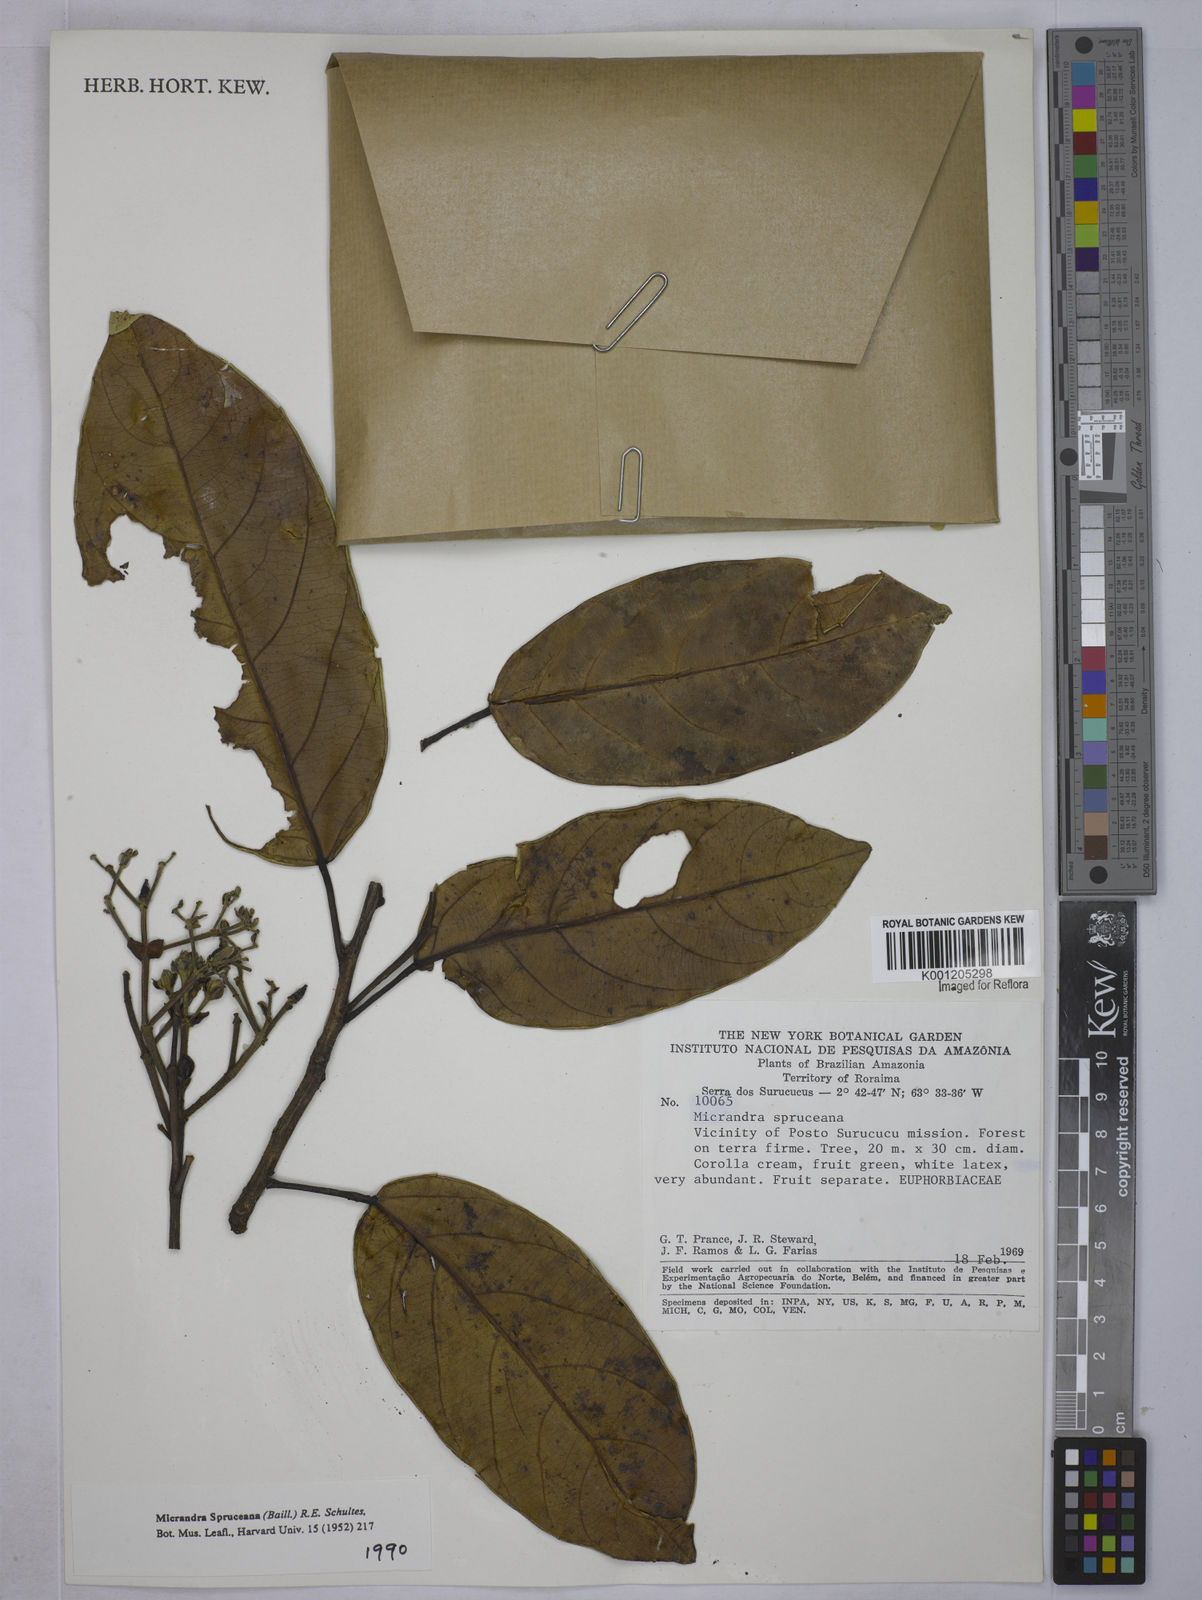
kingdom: Plantae
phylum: Tracheophyta
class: Magnoliopsida
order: Malpighiales
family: Euphorbiaceae
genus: Micrandra
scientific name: Micrandra spruceana
